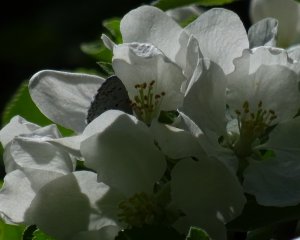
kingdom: Animalia
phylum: Arthropoda
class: Insecta
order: Lepidoptera
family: Lycaenidae
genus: Celastrina
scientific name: Celastrina lucia
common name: Northern Spring Azure
